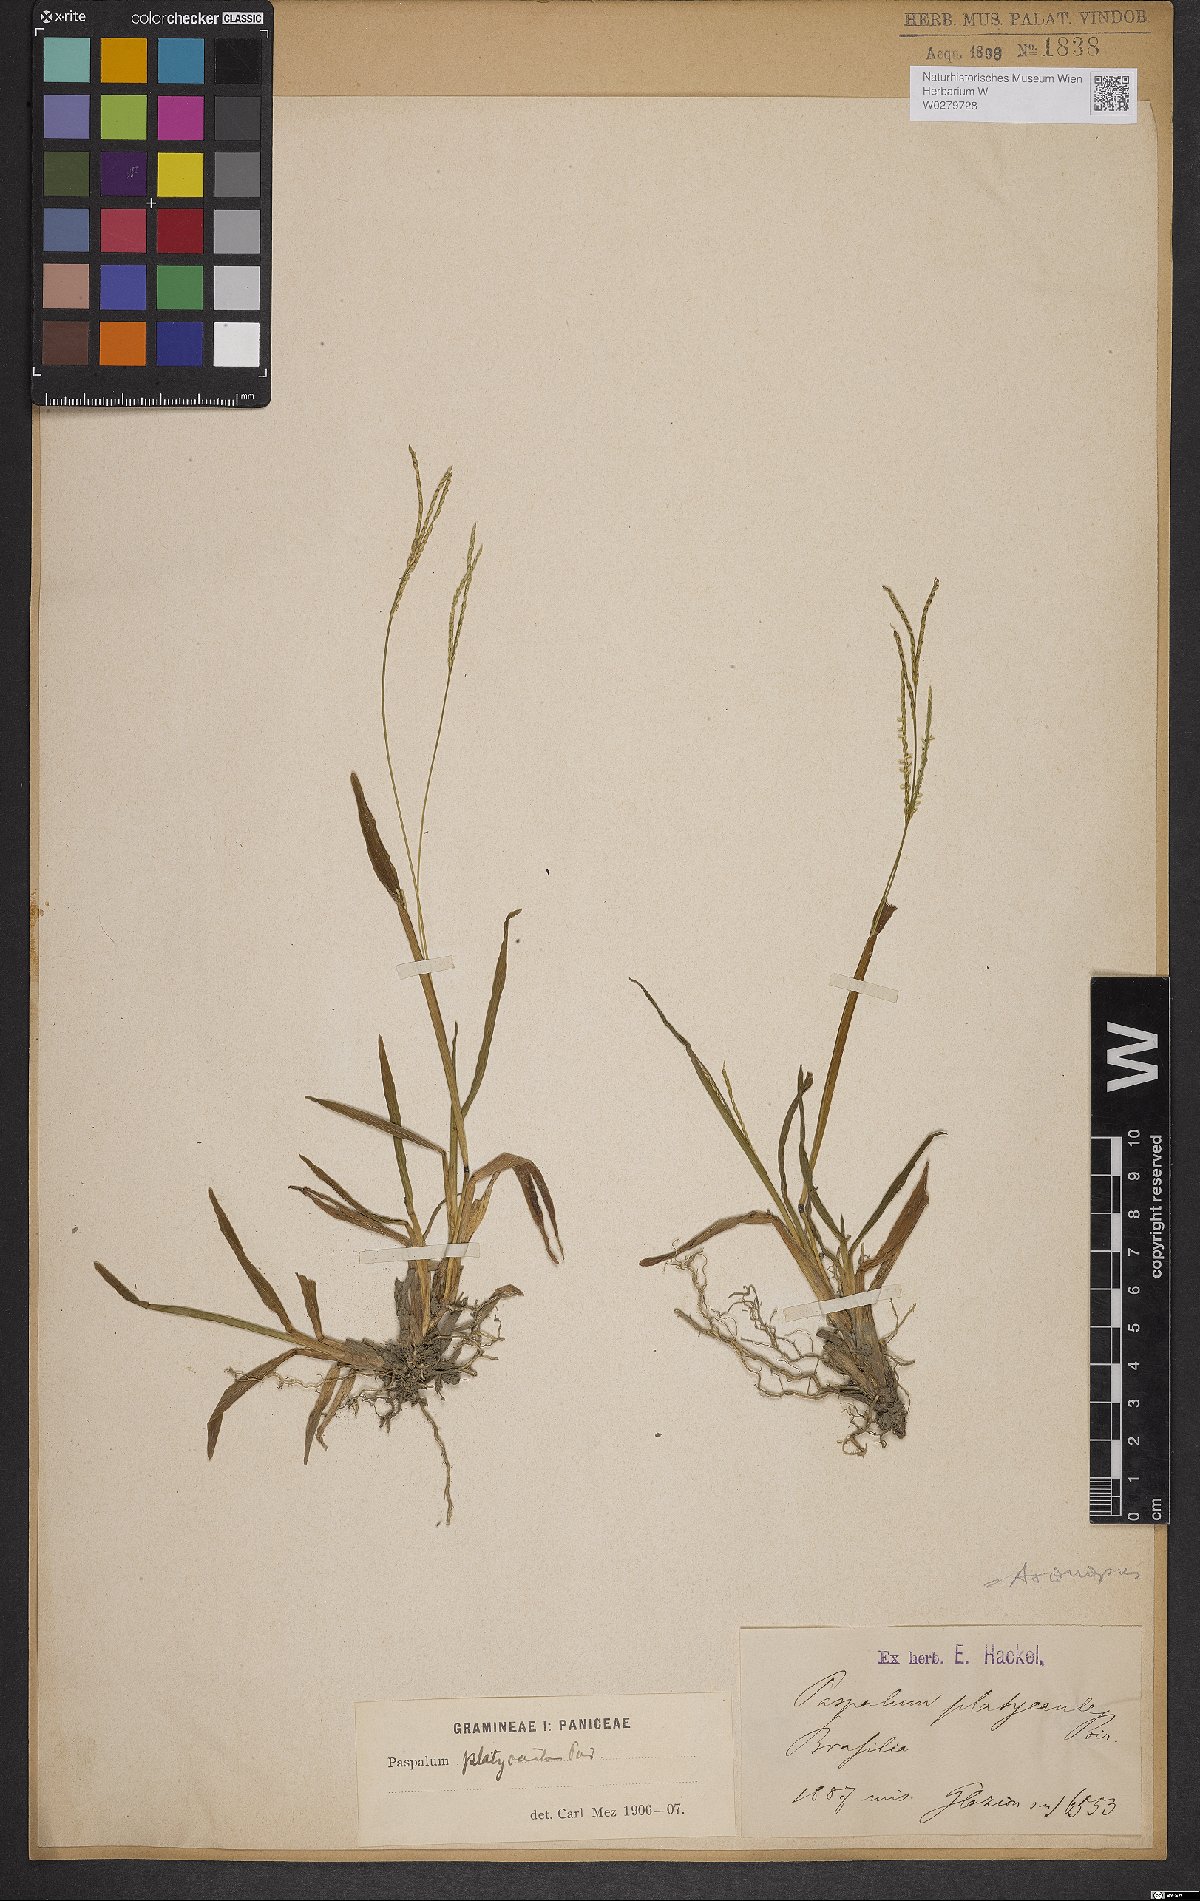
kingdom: Plantae
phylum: Tracheophyta
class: Liliopsida
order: Poales
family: Poaceae
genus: Axonopus
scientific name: Axonopus compressus
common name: American carpet grass
